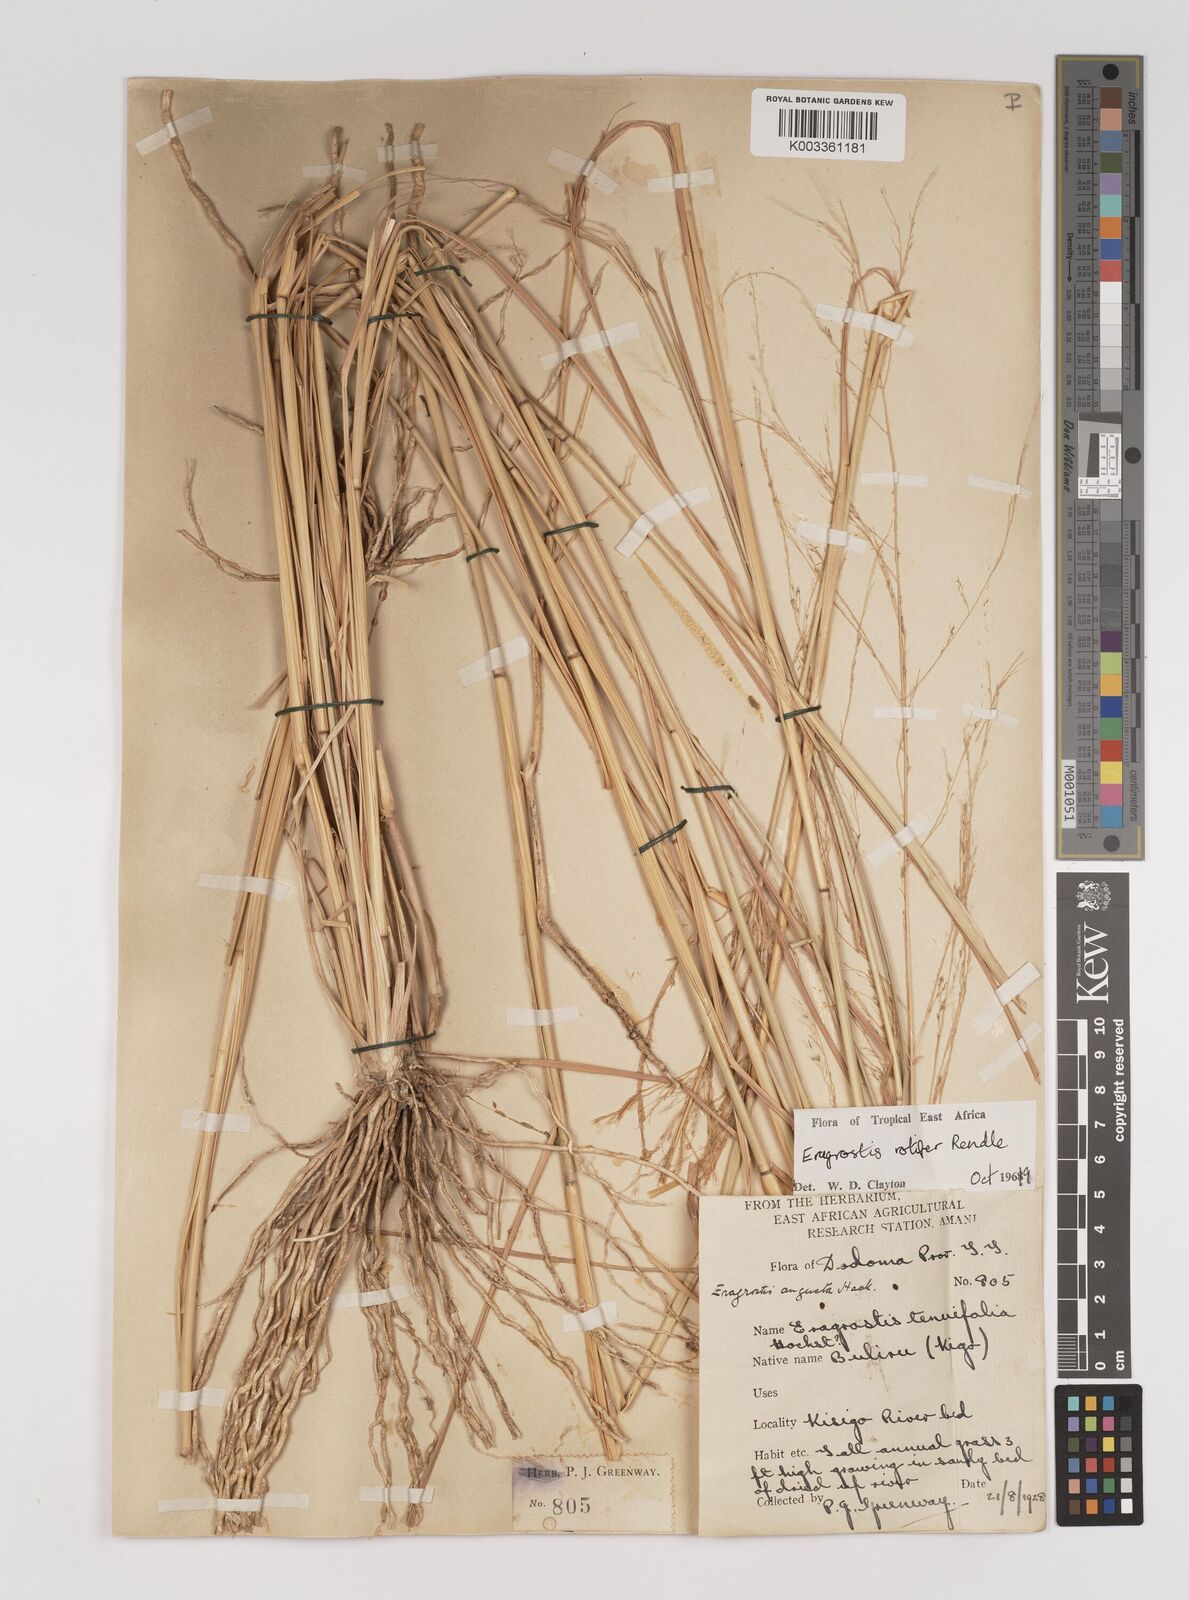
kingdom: Plantae
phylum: Tracheophyta
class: Liliopsida
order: Poales
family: Poaceae
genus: Eragrostis
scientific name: Eragrostis rotifer
